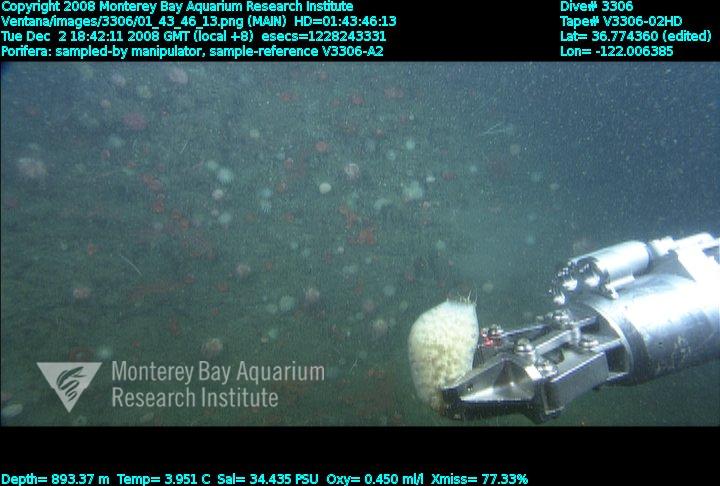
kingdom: Animalia
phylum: Porifera
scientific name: Porifera
